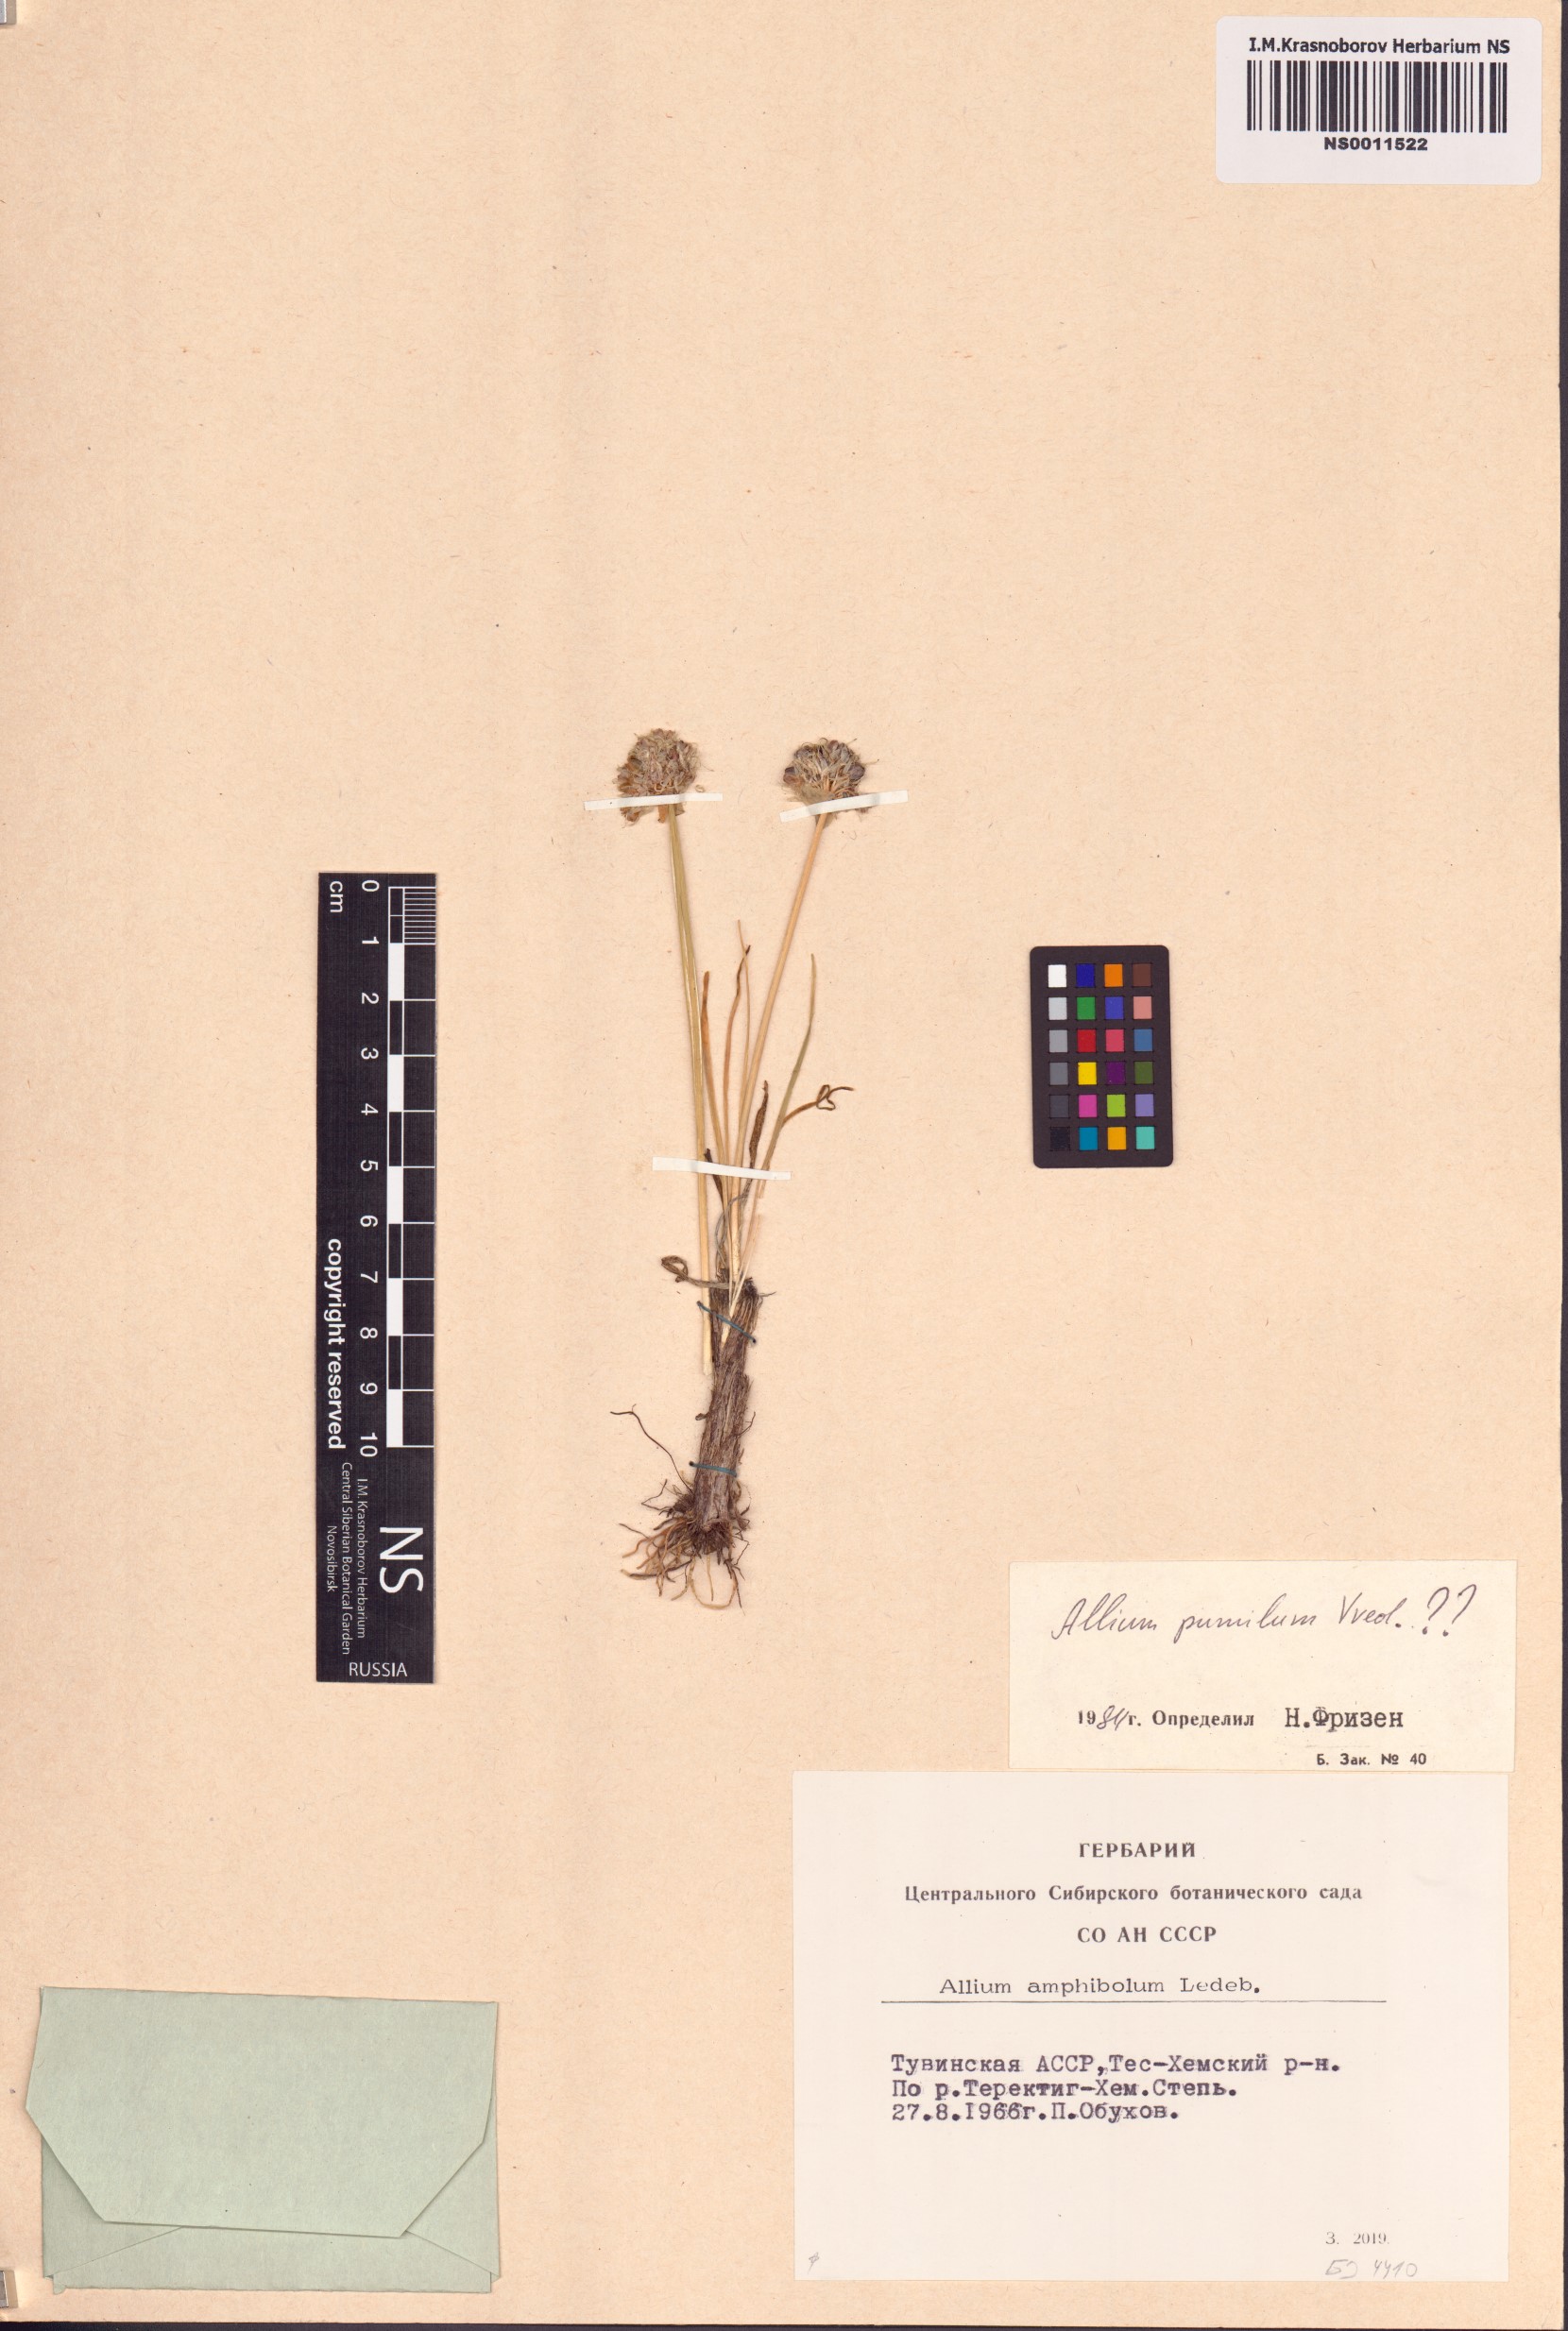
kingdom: Plantae
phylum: Tracheophyta
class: Liliopsida
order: Asparagales
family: Amaryllidaceae
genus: Allium
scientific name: Allium pumilum
